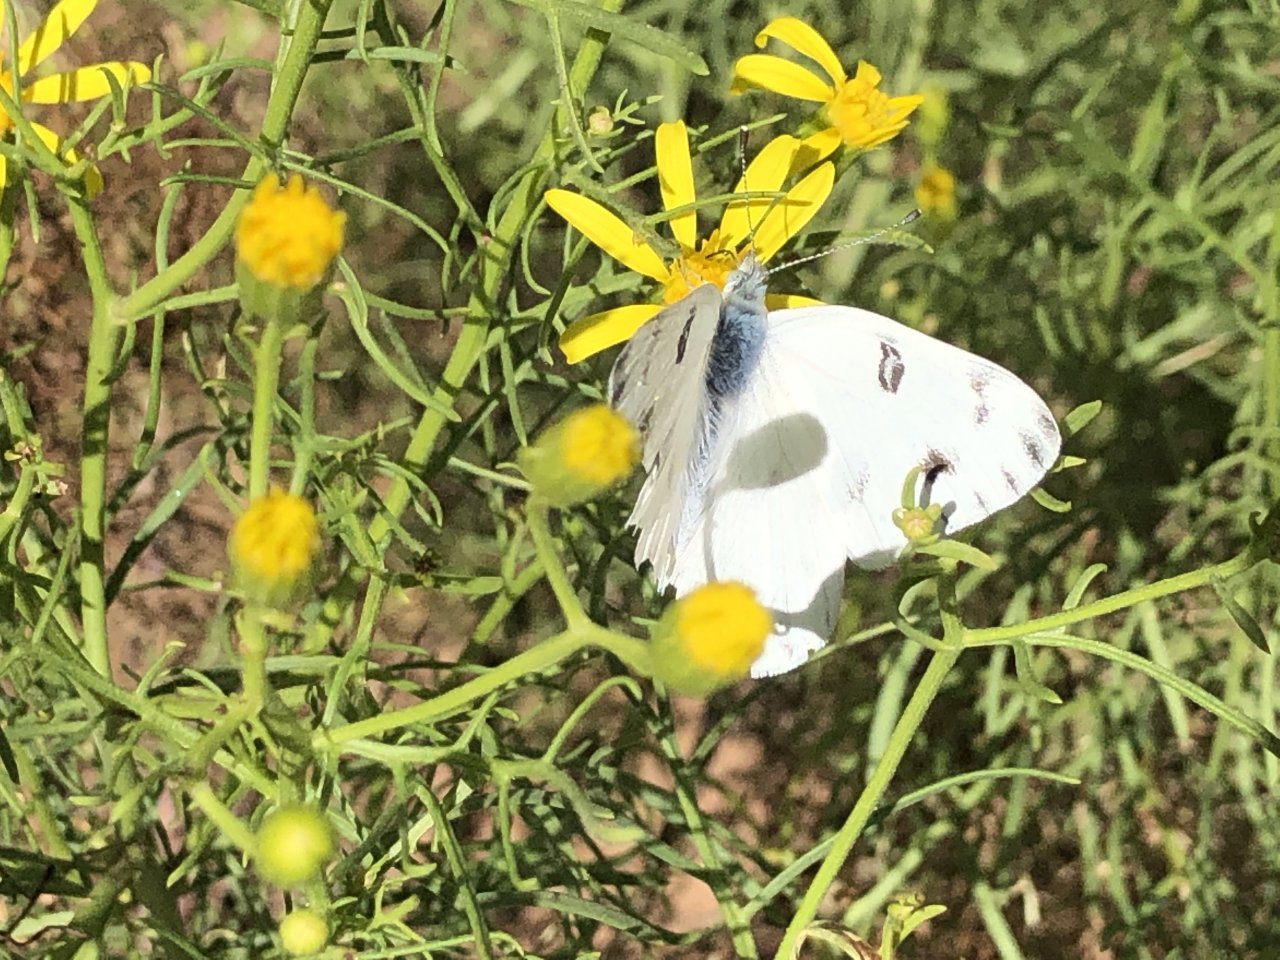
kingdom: Animalia
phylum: Arthropoda
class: Insecta
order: Lepidoptera
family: Pieridae
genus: Pontia
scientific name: Pontia protodice
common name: Checkered White
